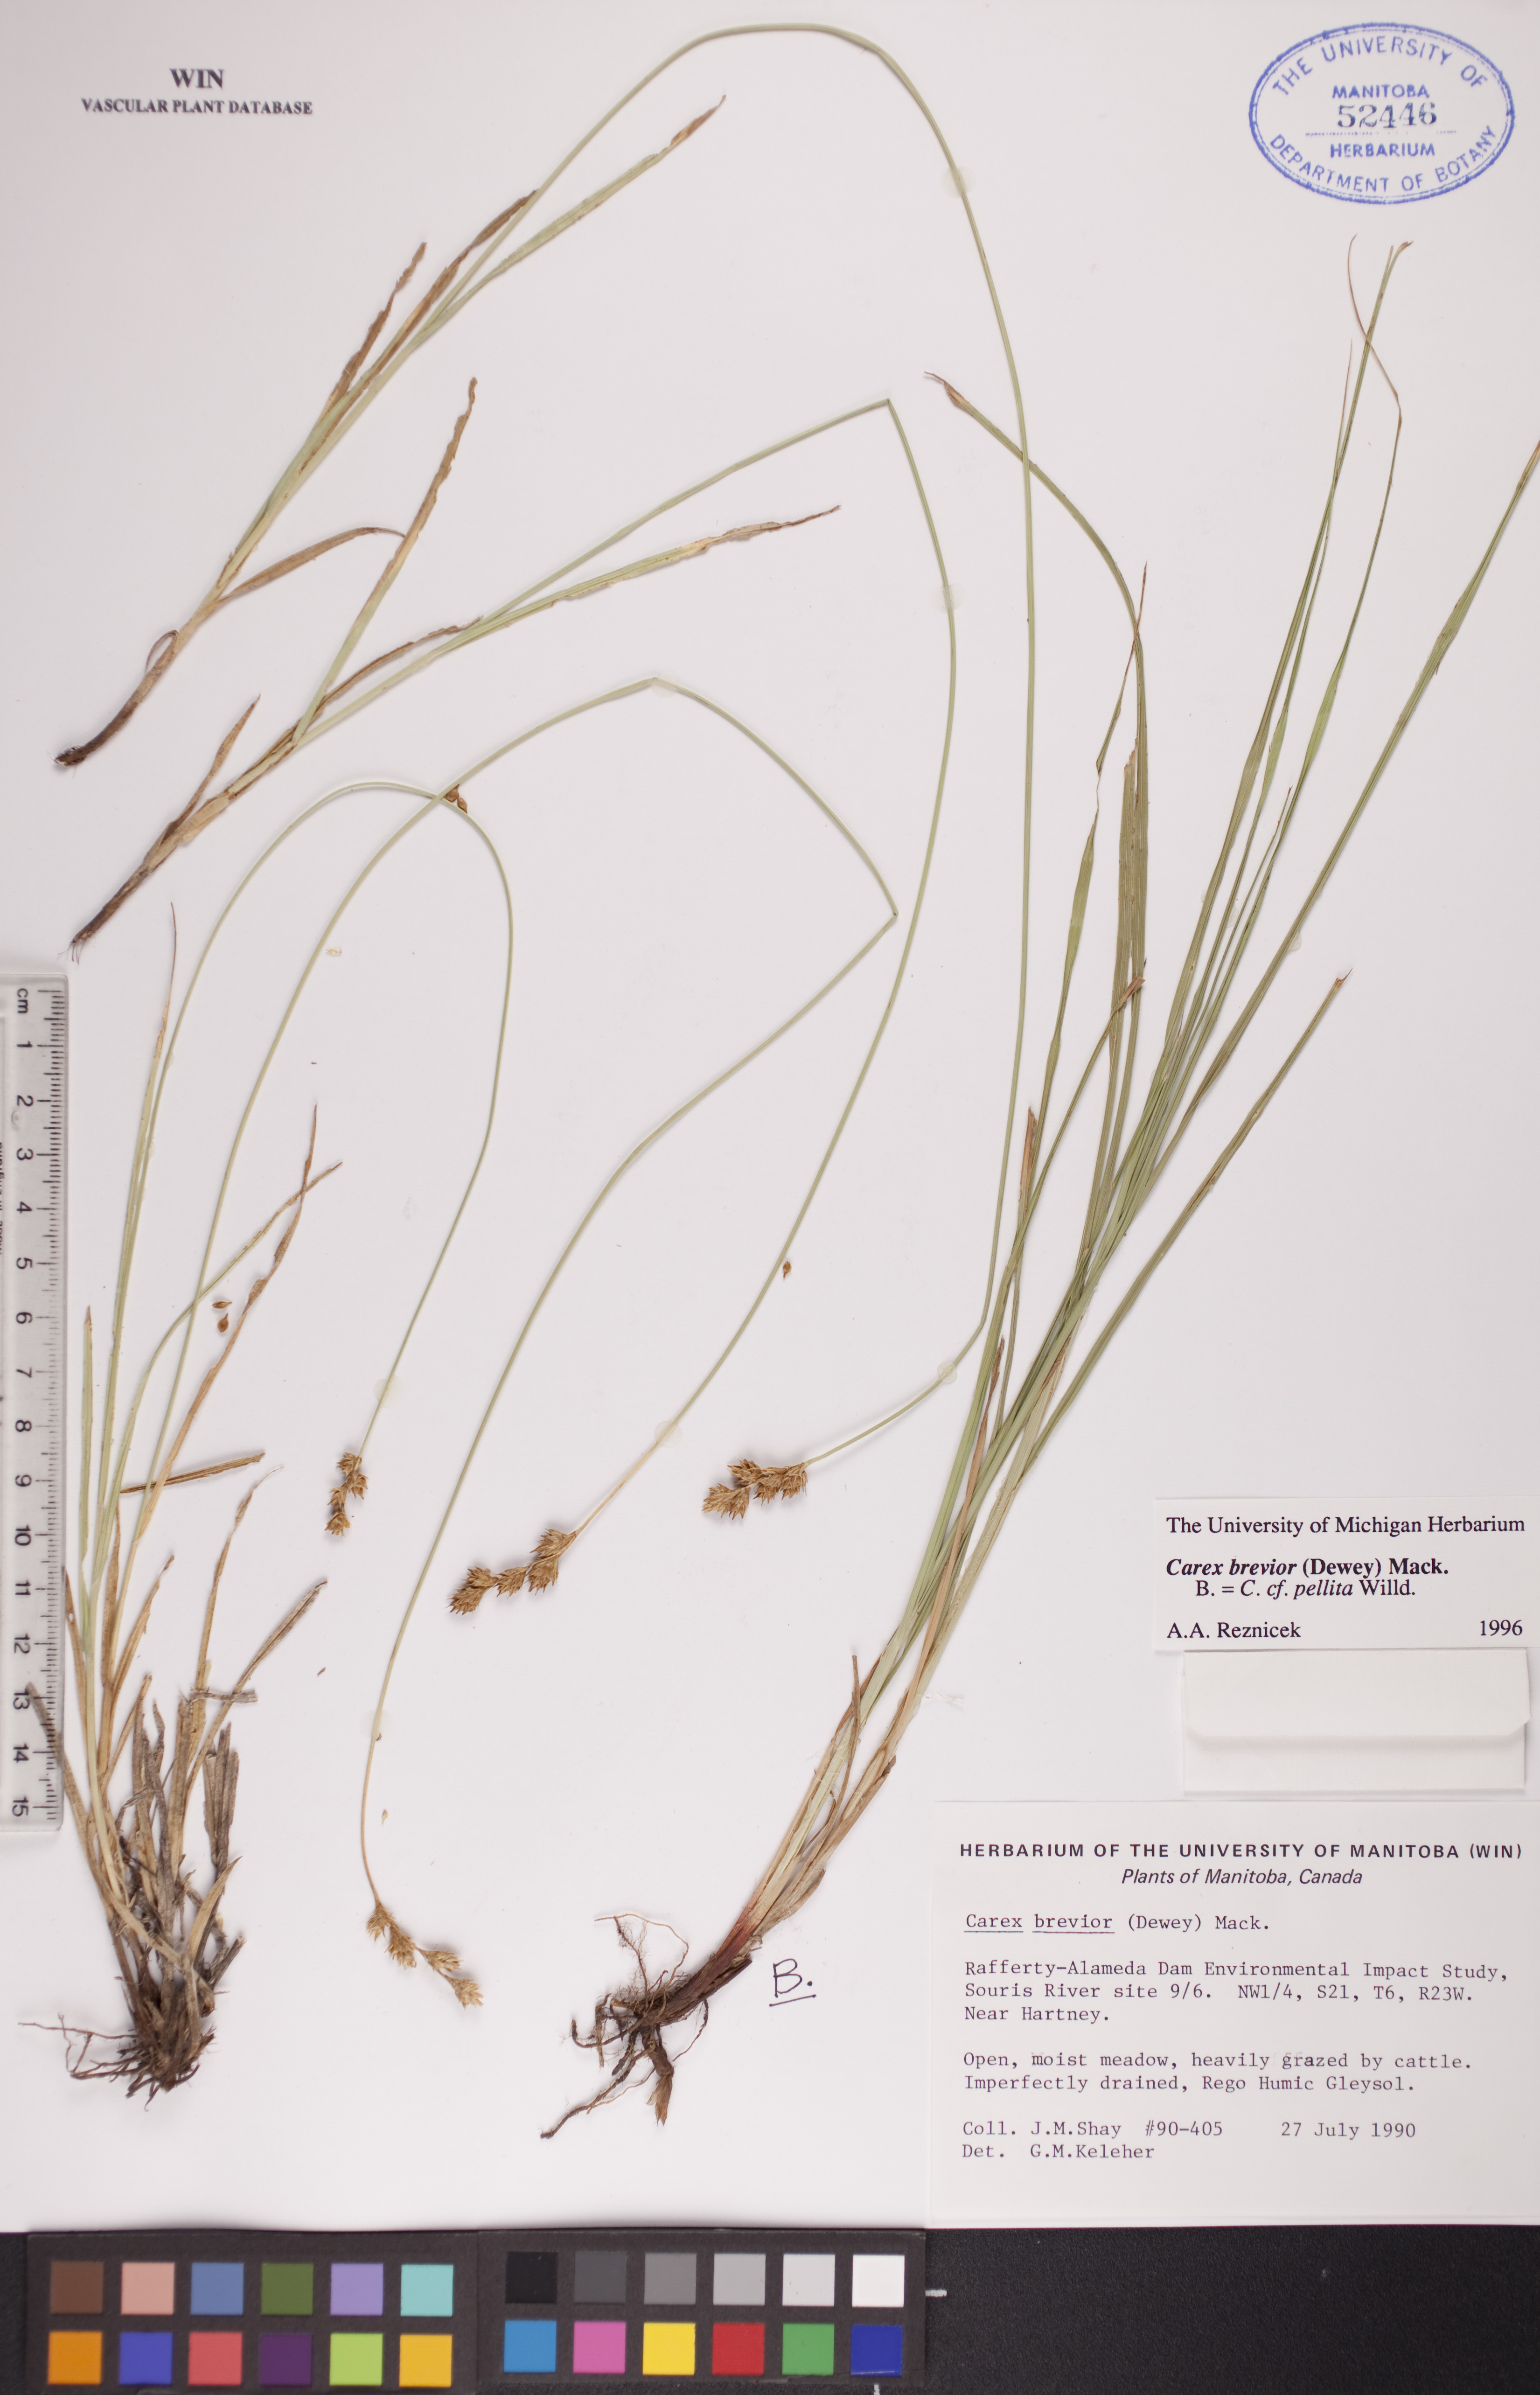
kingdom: Plantae
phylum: Tracheophyta
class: Liliopsida
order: Poales
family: Cyperaceae
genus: Carex
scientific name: Carex brevior
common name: Brevior sedge
